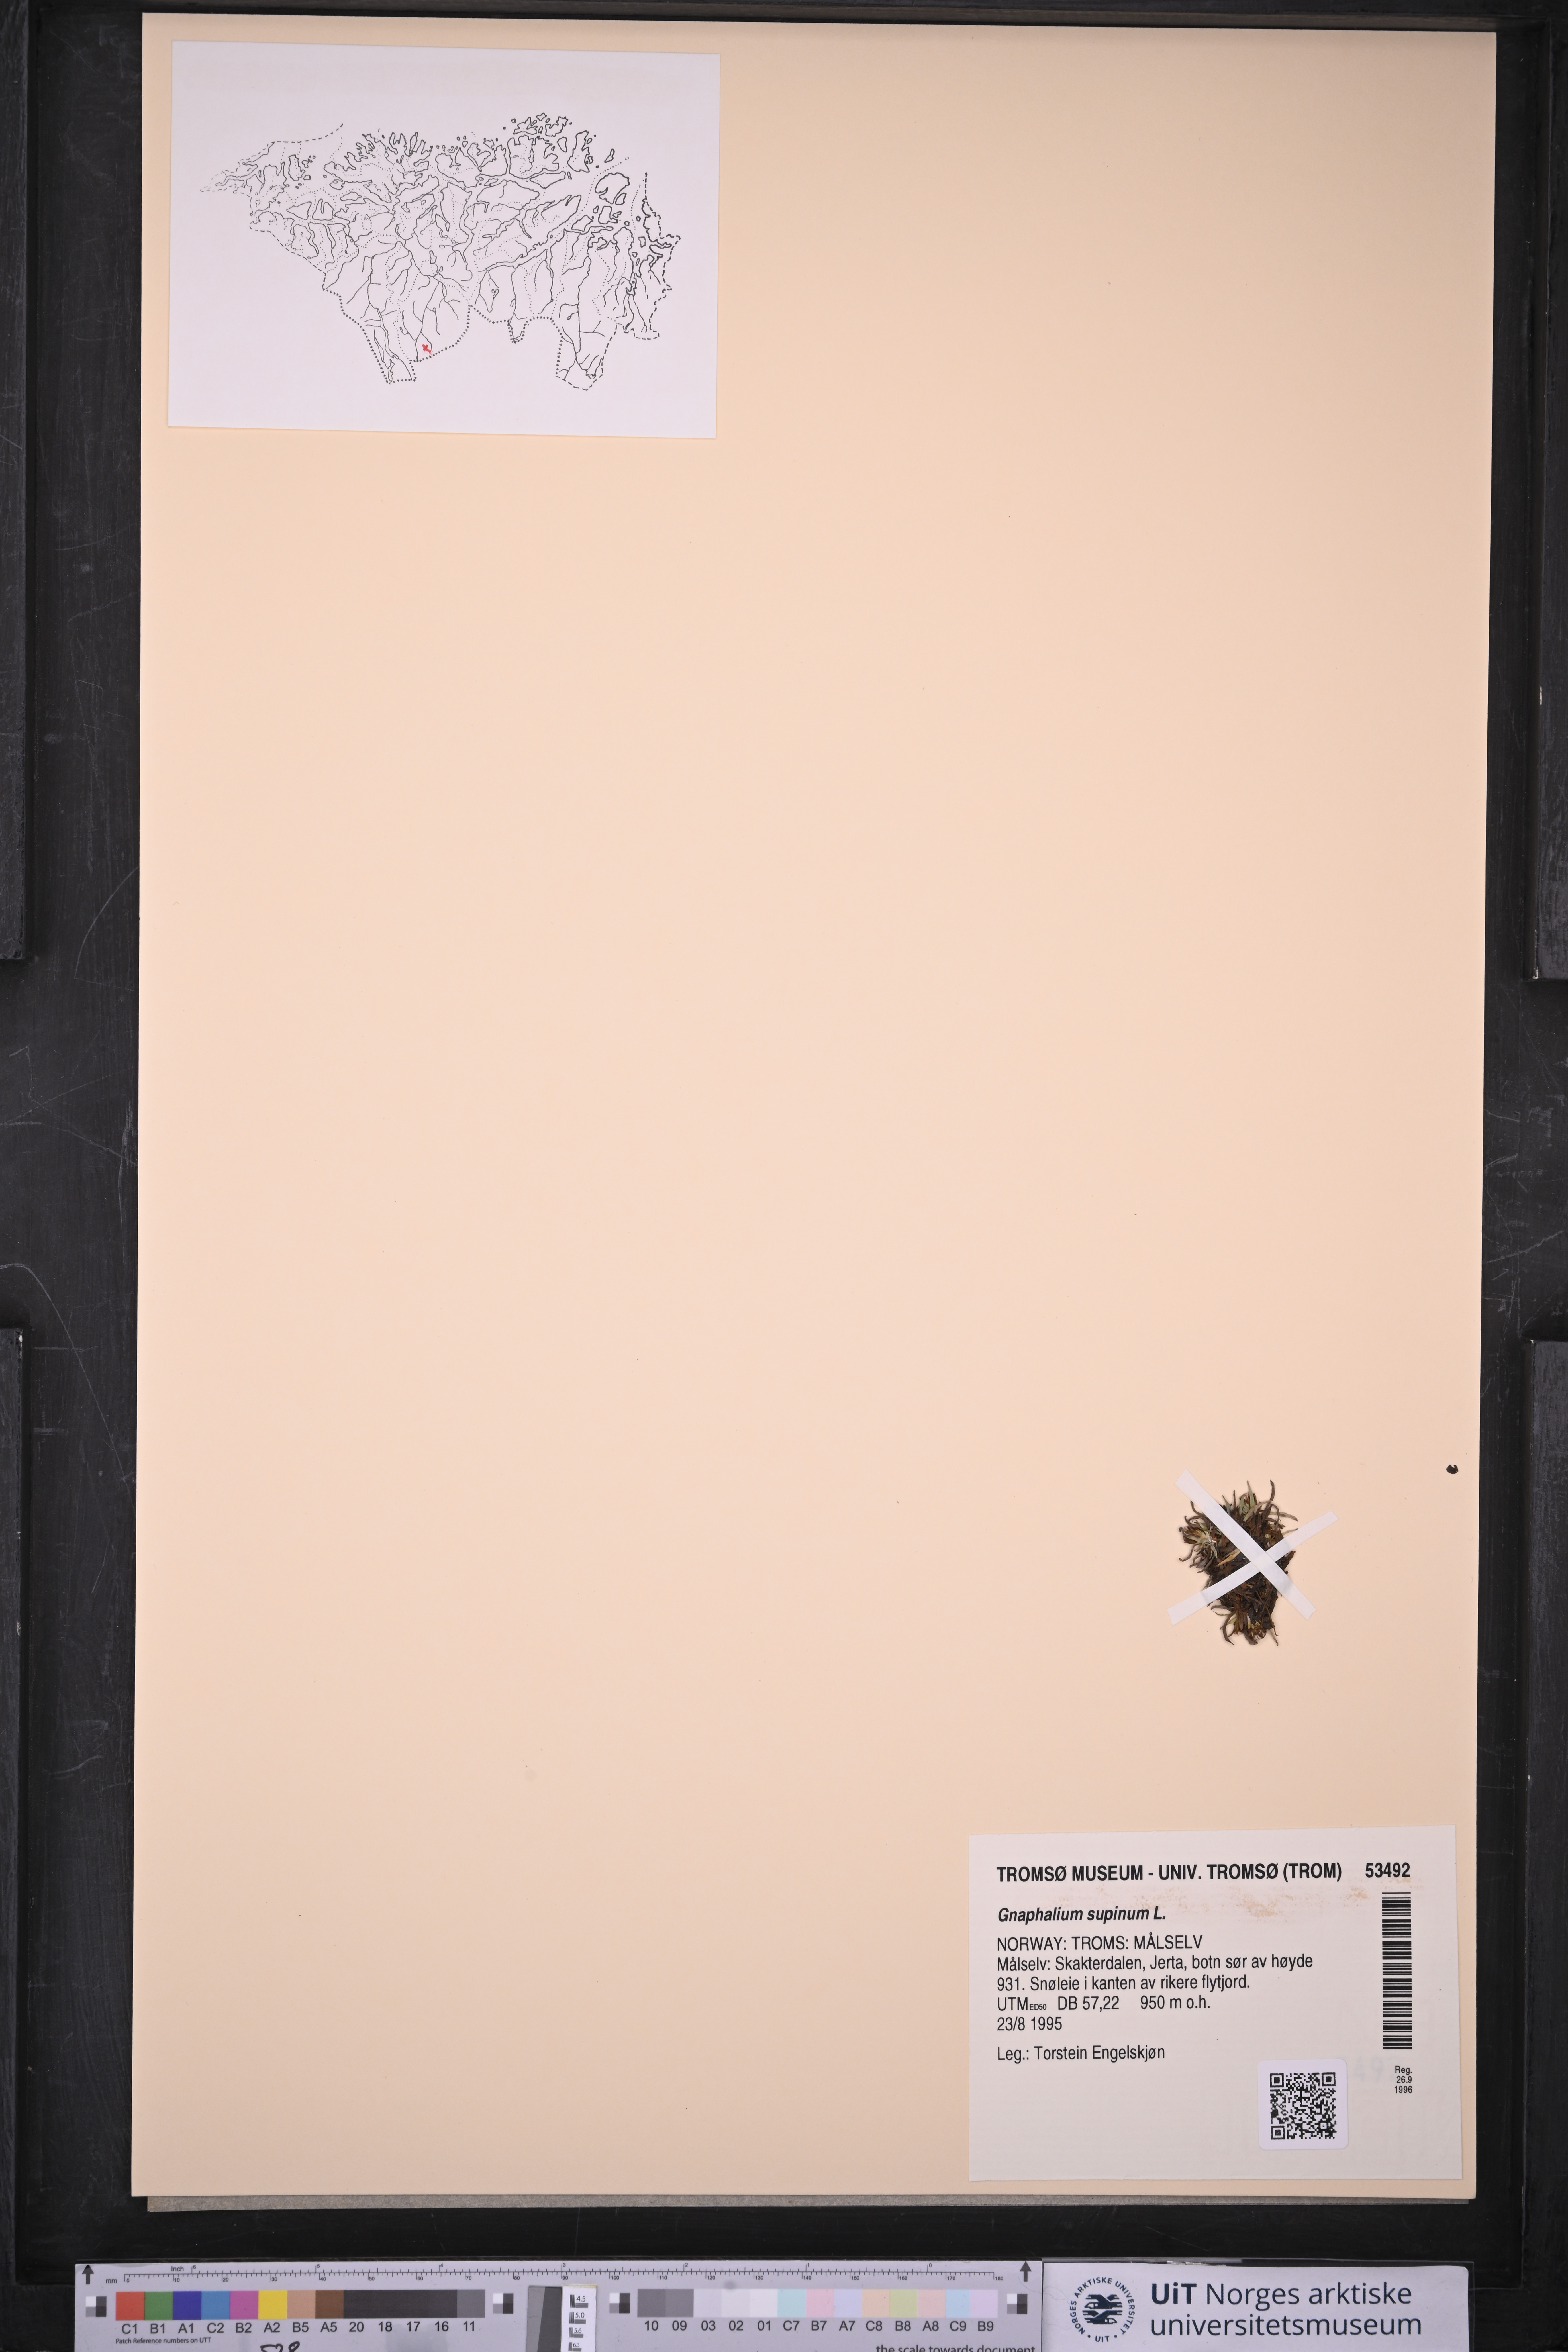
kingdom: Plantae
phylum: Tracheophyta
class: Magnoliopsida
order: Asterales
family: Asteraceae
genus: Omalotheca
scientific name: Omalotheca supina
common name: Alpine arctic-cudweed
